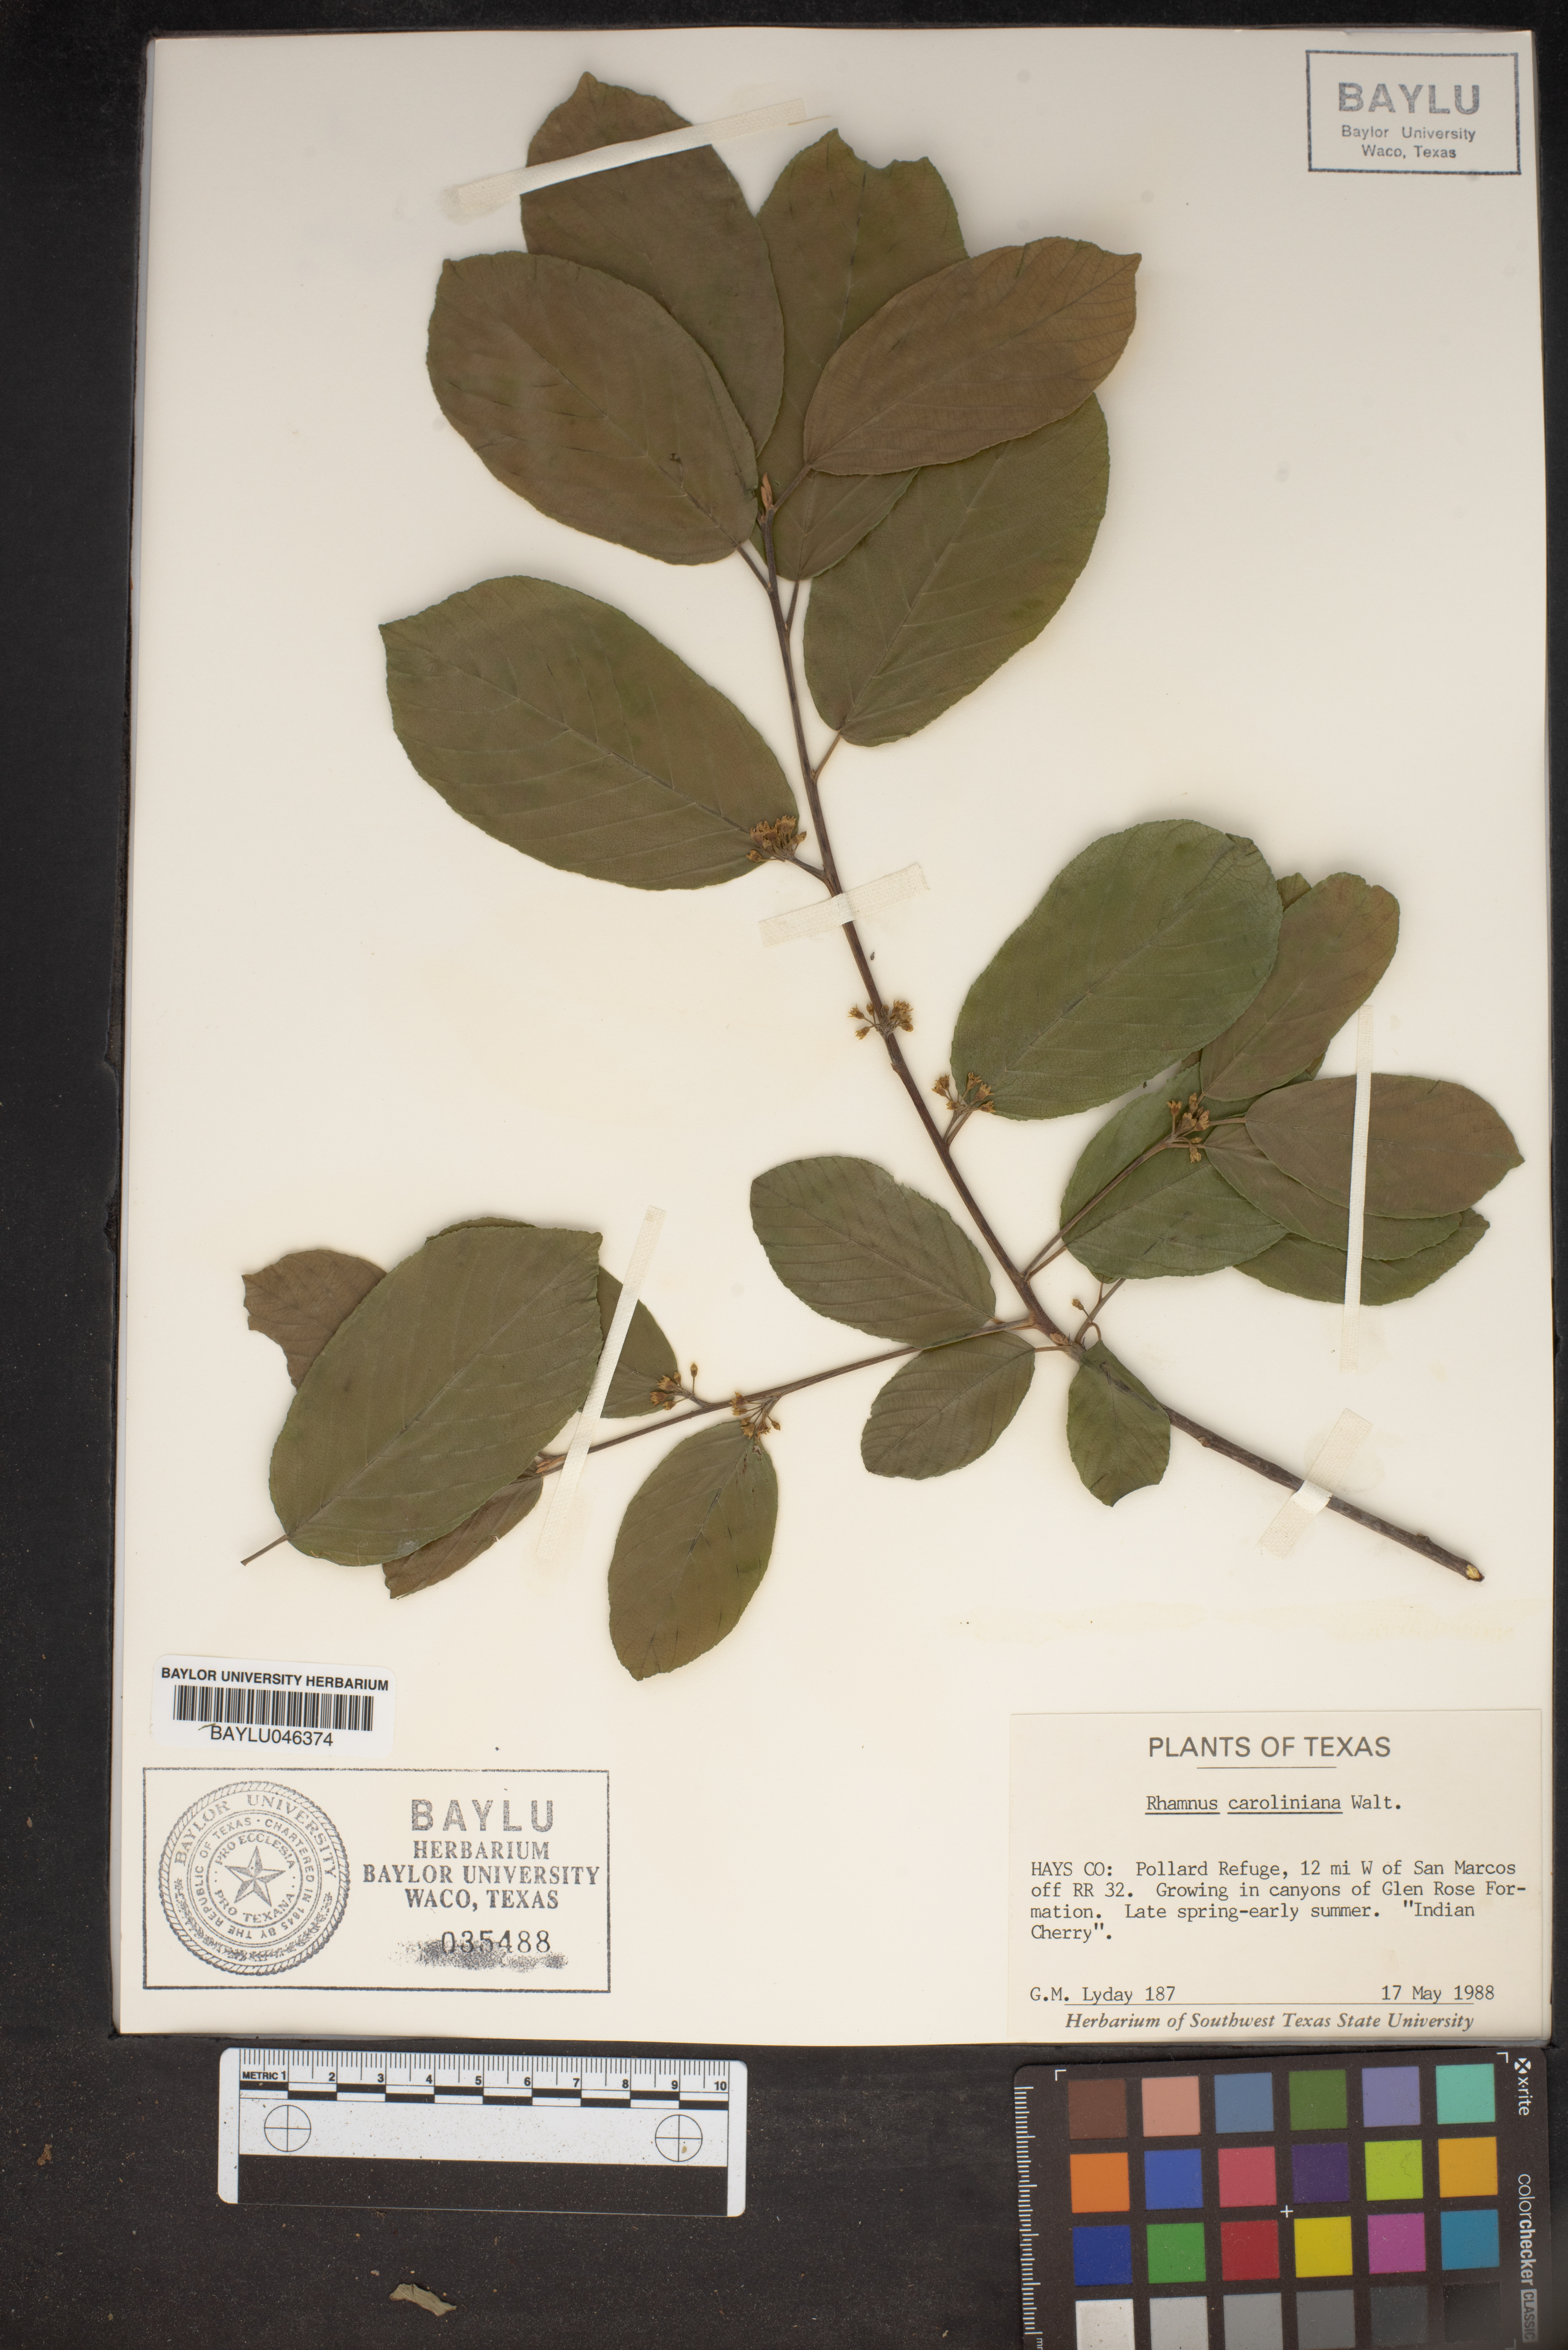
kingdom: Plantae
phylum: Tracheophyta
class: Magnoliopsida
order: Rosales
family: Rhamnaceae
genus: Frangula
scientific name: Frangula caroliniana
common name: Carolina buckthorn
